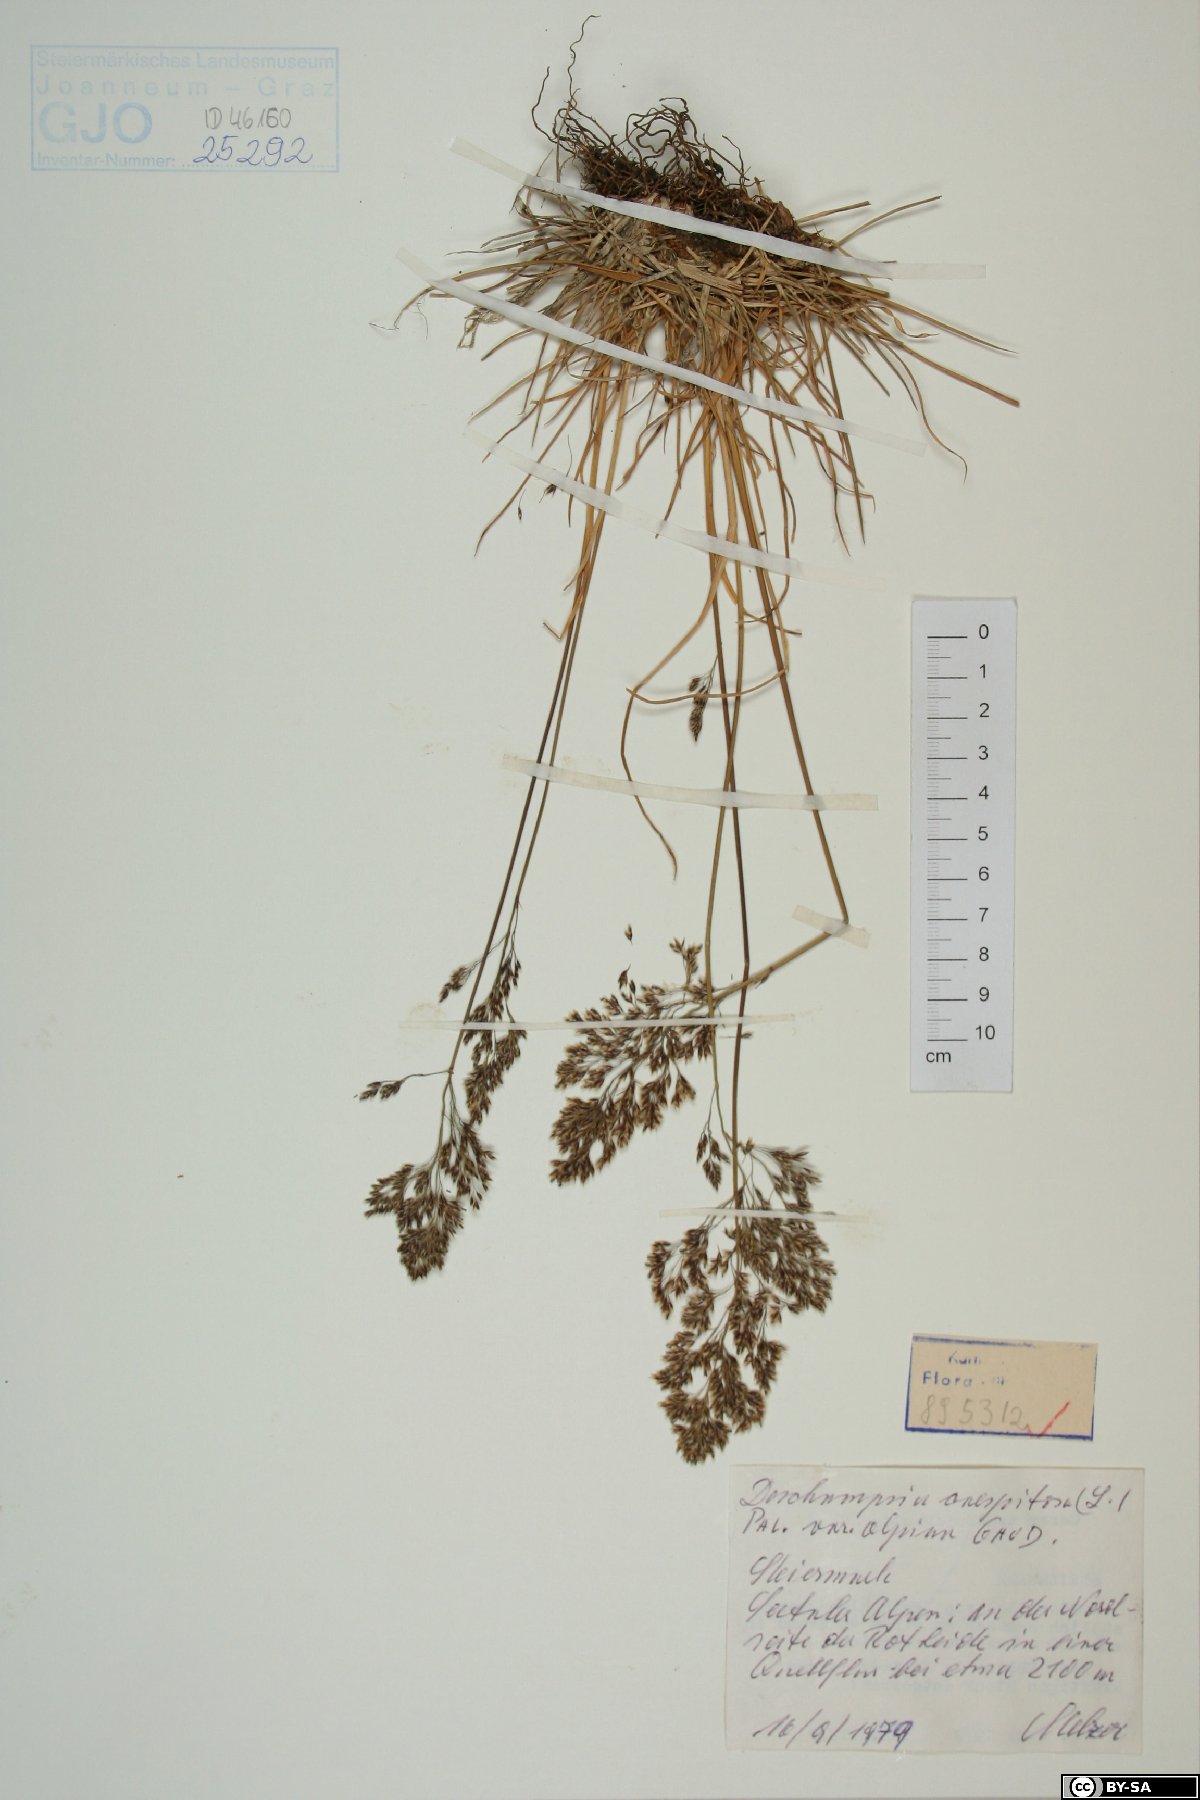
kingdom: Plantae
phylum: Tracheophyta
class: Liliopsida
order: Poales
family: Poaceae
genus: Deschampsia
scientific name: Deschampsia cespitosa
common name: Tufted hair-grass
